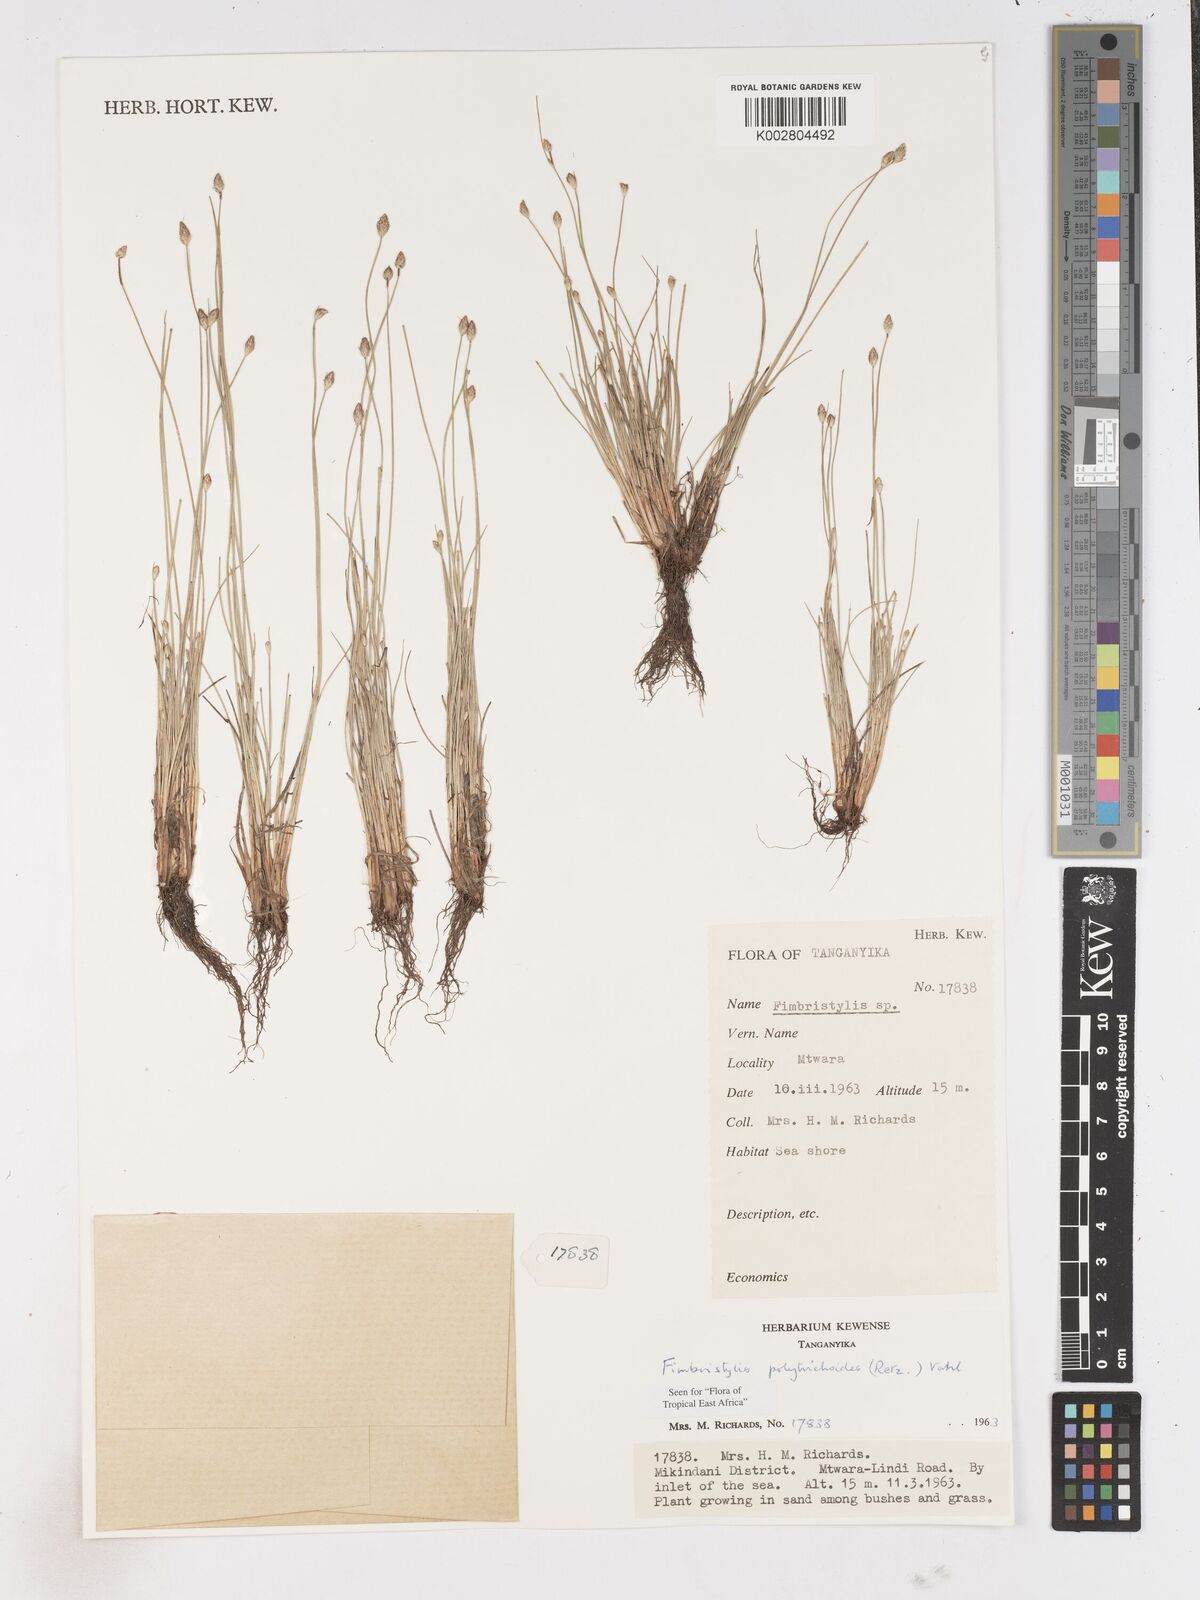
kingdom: Plantae
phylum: Tracheophyta
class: Liliopsida
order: Poales
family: Cyperaceae
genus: Fimbristylis
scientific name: Fimbristylis polytrichoides
